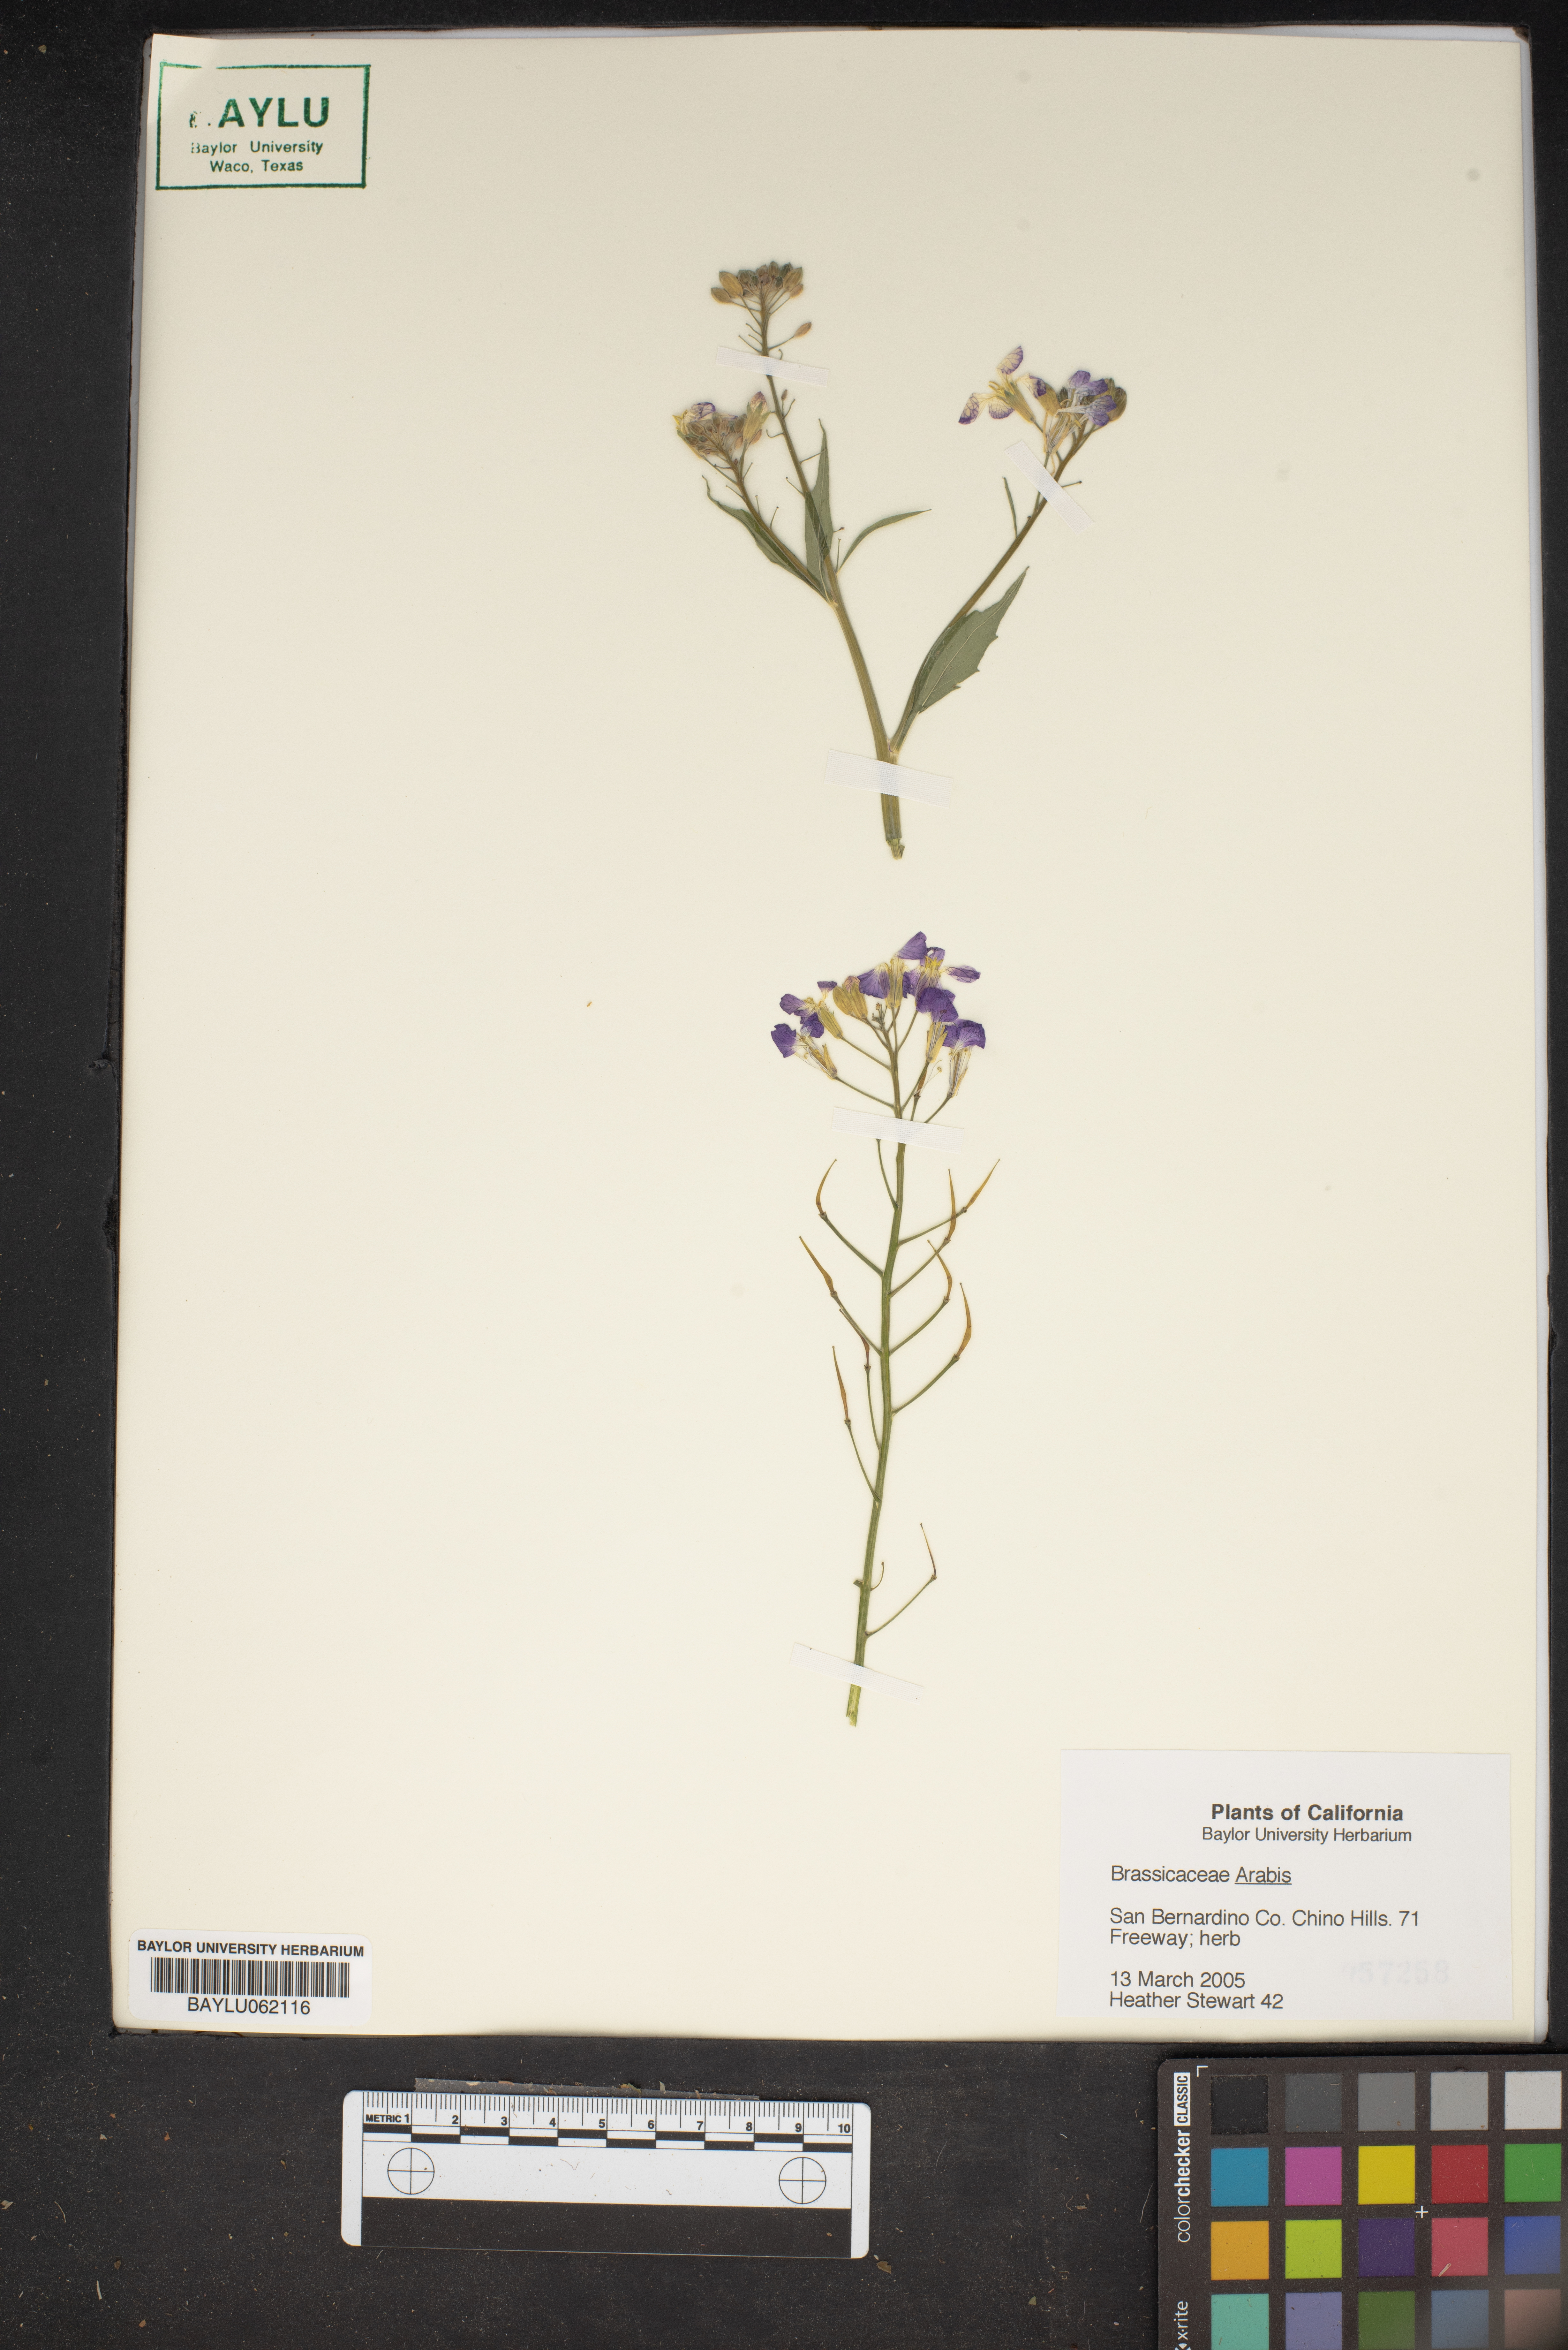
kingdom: Plantae
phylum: Tracheophyta
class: Magnoliopsida
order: Brassicales
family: Brassicaceae
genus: Arabis
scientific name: Arabis
